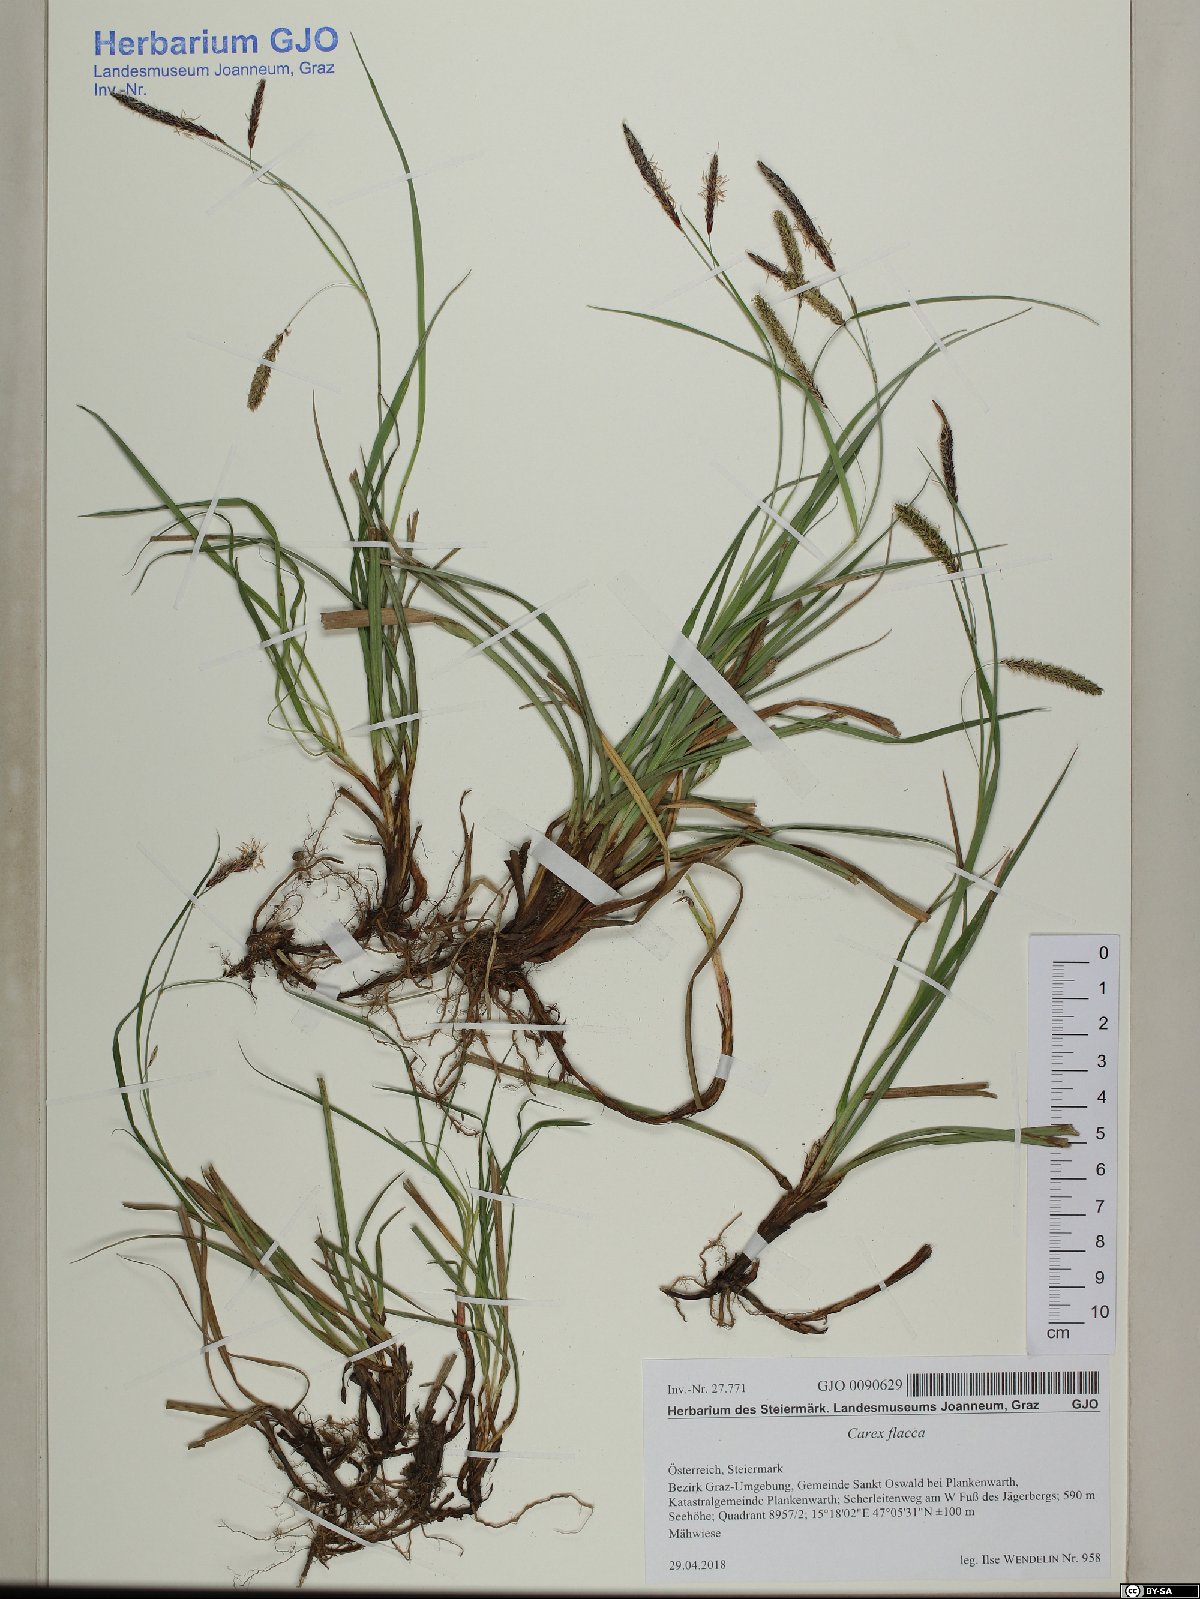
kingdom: Plantae
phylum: Tracheophyta
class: Liliopsida
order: Poales
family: Cyperaceae
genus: Carex
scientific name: Carex flacca
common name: Glaucous sedge
